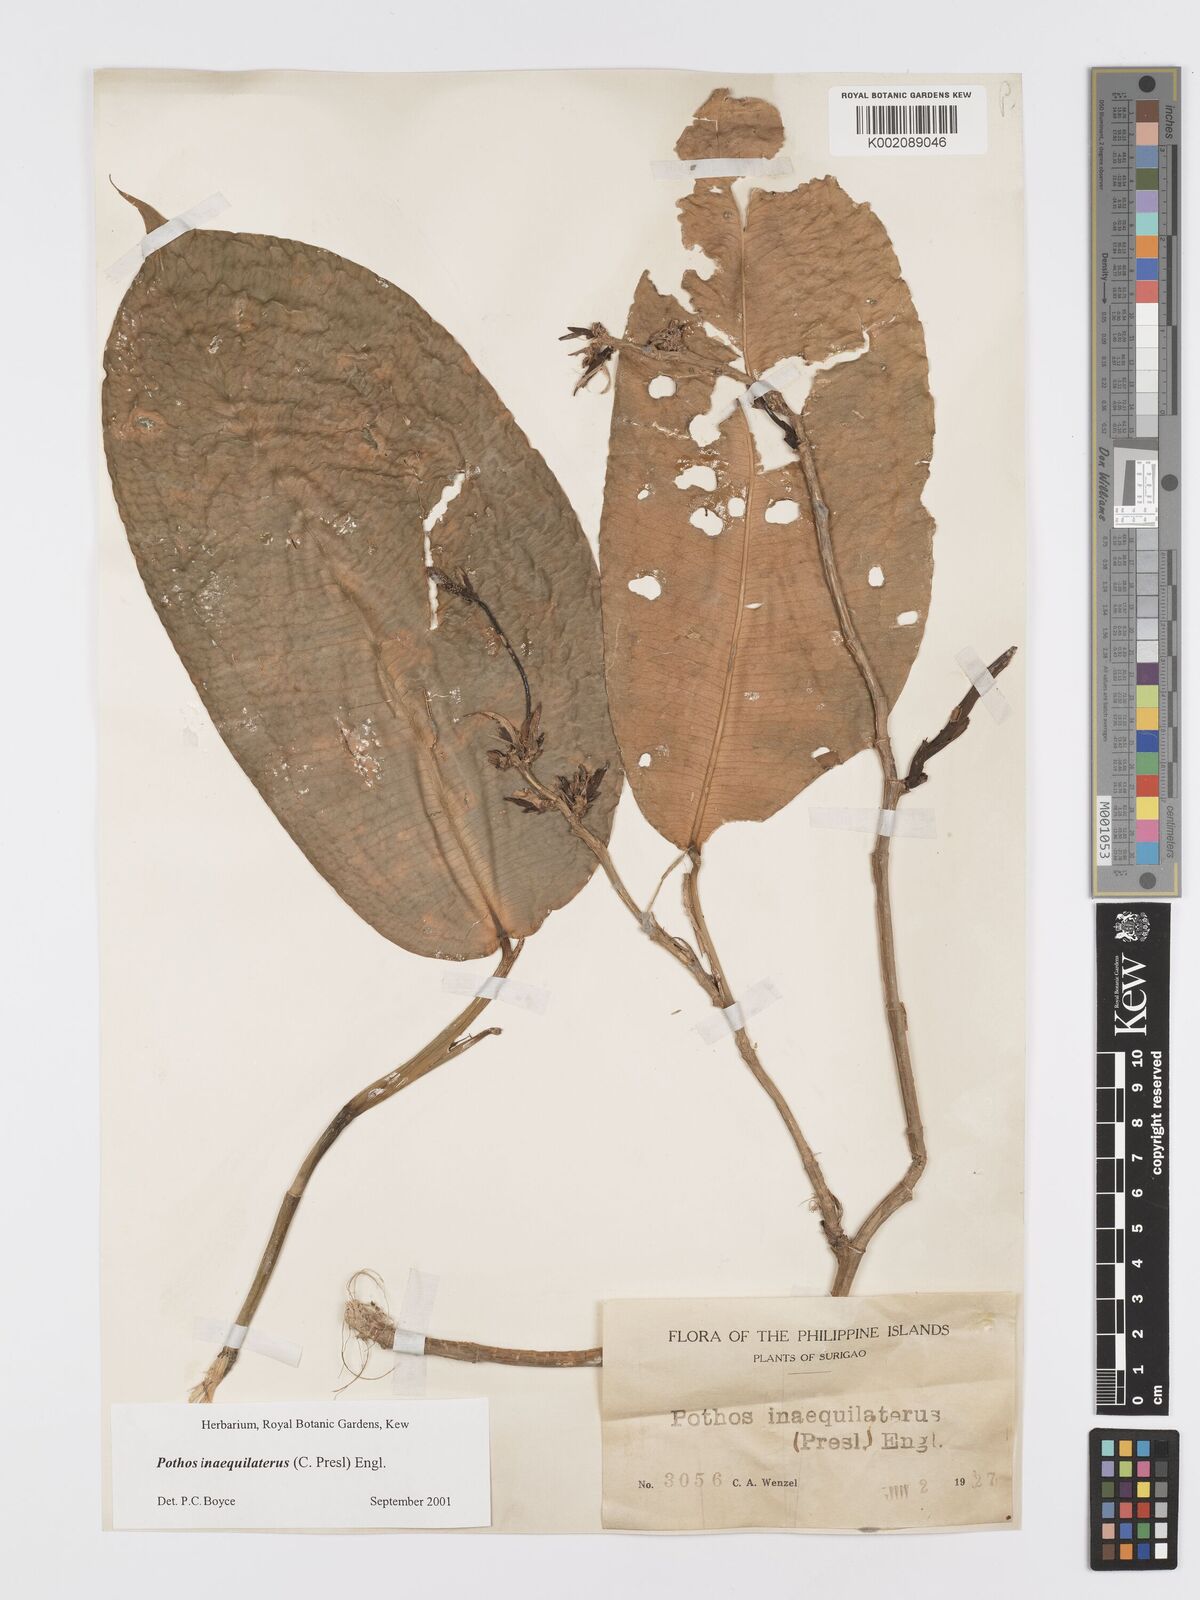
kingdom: Plantae
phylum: Tracheophyta
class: Liliopsida
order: Alismatales
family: Araceae
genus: Pothos
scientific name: Pothos inaequilaterus
